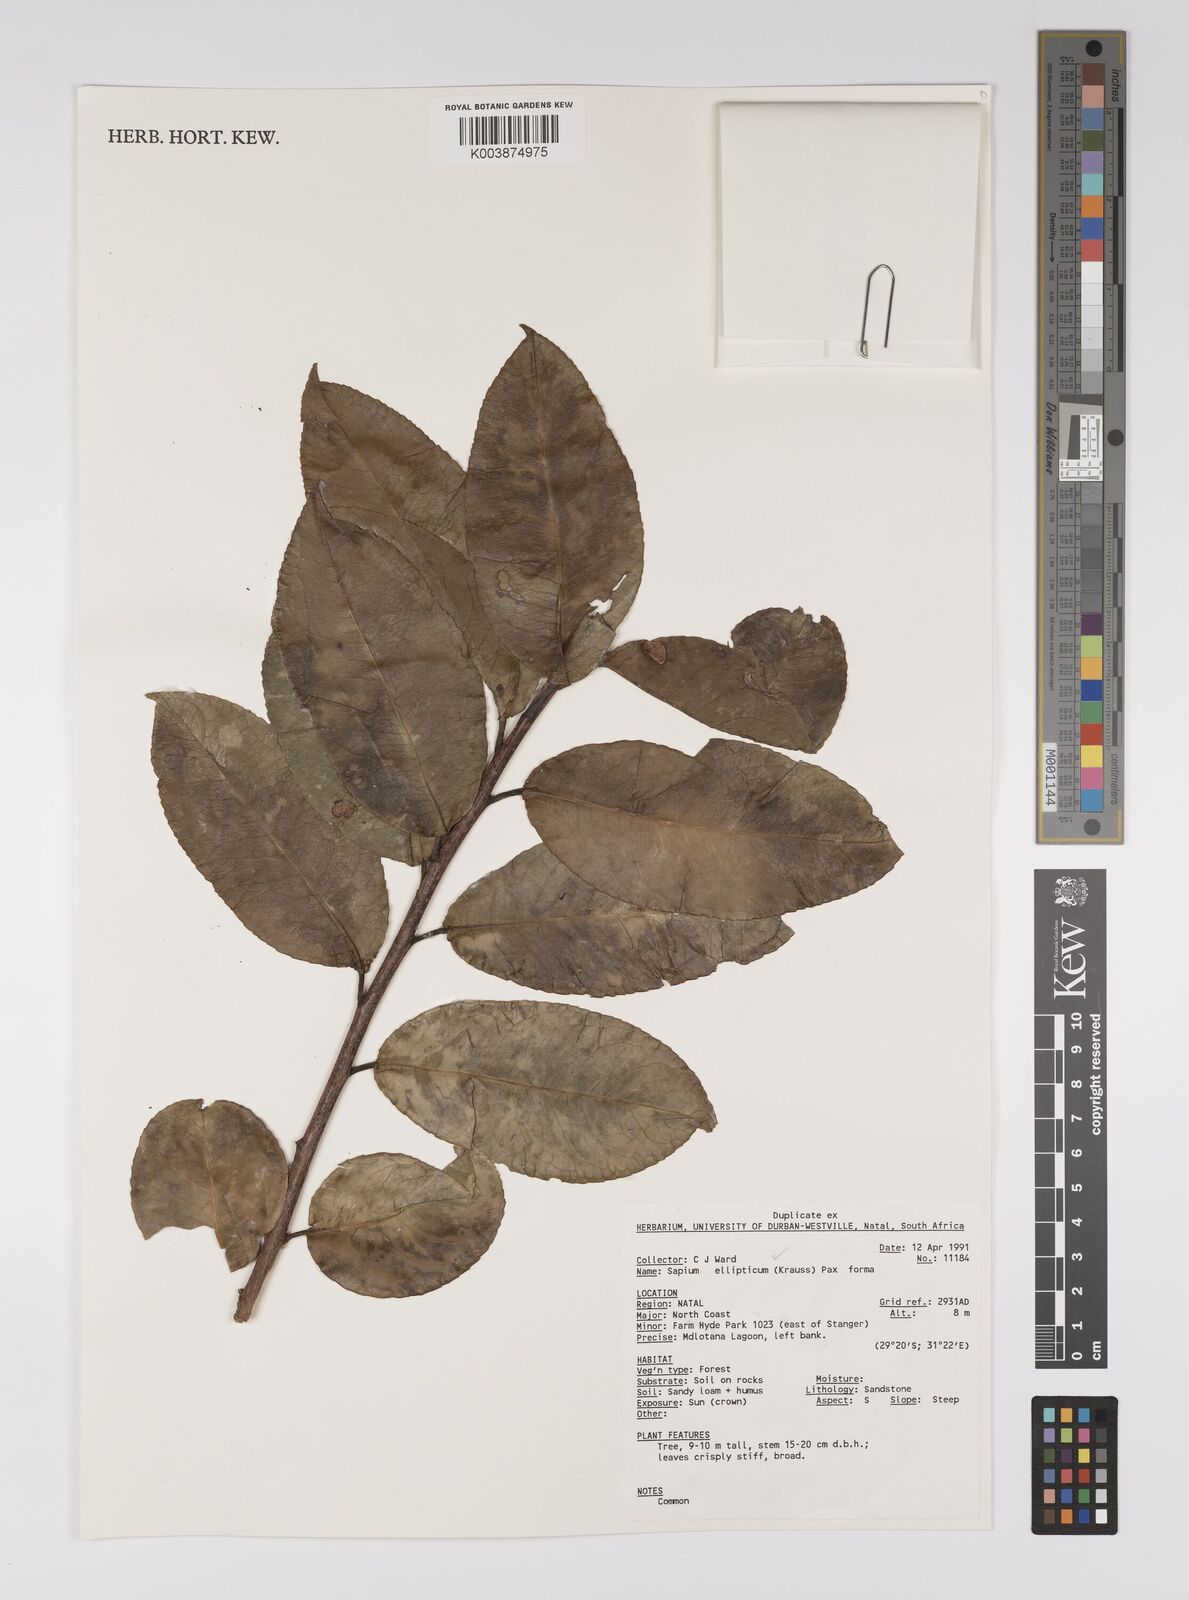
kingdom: Plantae
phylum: Tracheophyta
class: Magnoliopsida
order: Malpighiales
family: Euphorbiaceae
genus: Shirakiopsis
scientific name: Shirakiopsis elliptica
